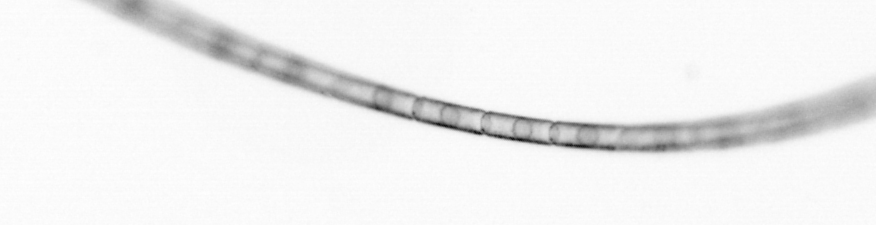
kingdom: Chromista
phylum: Ochrophyta
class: Bacillariophyceae
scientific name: Bacillariophyceae
